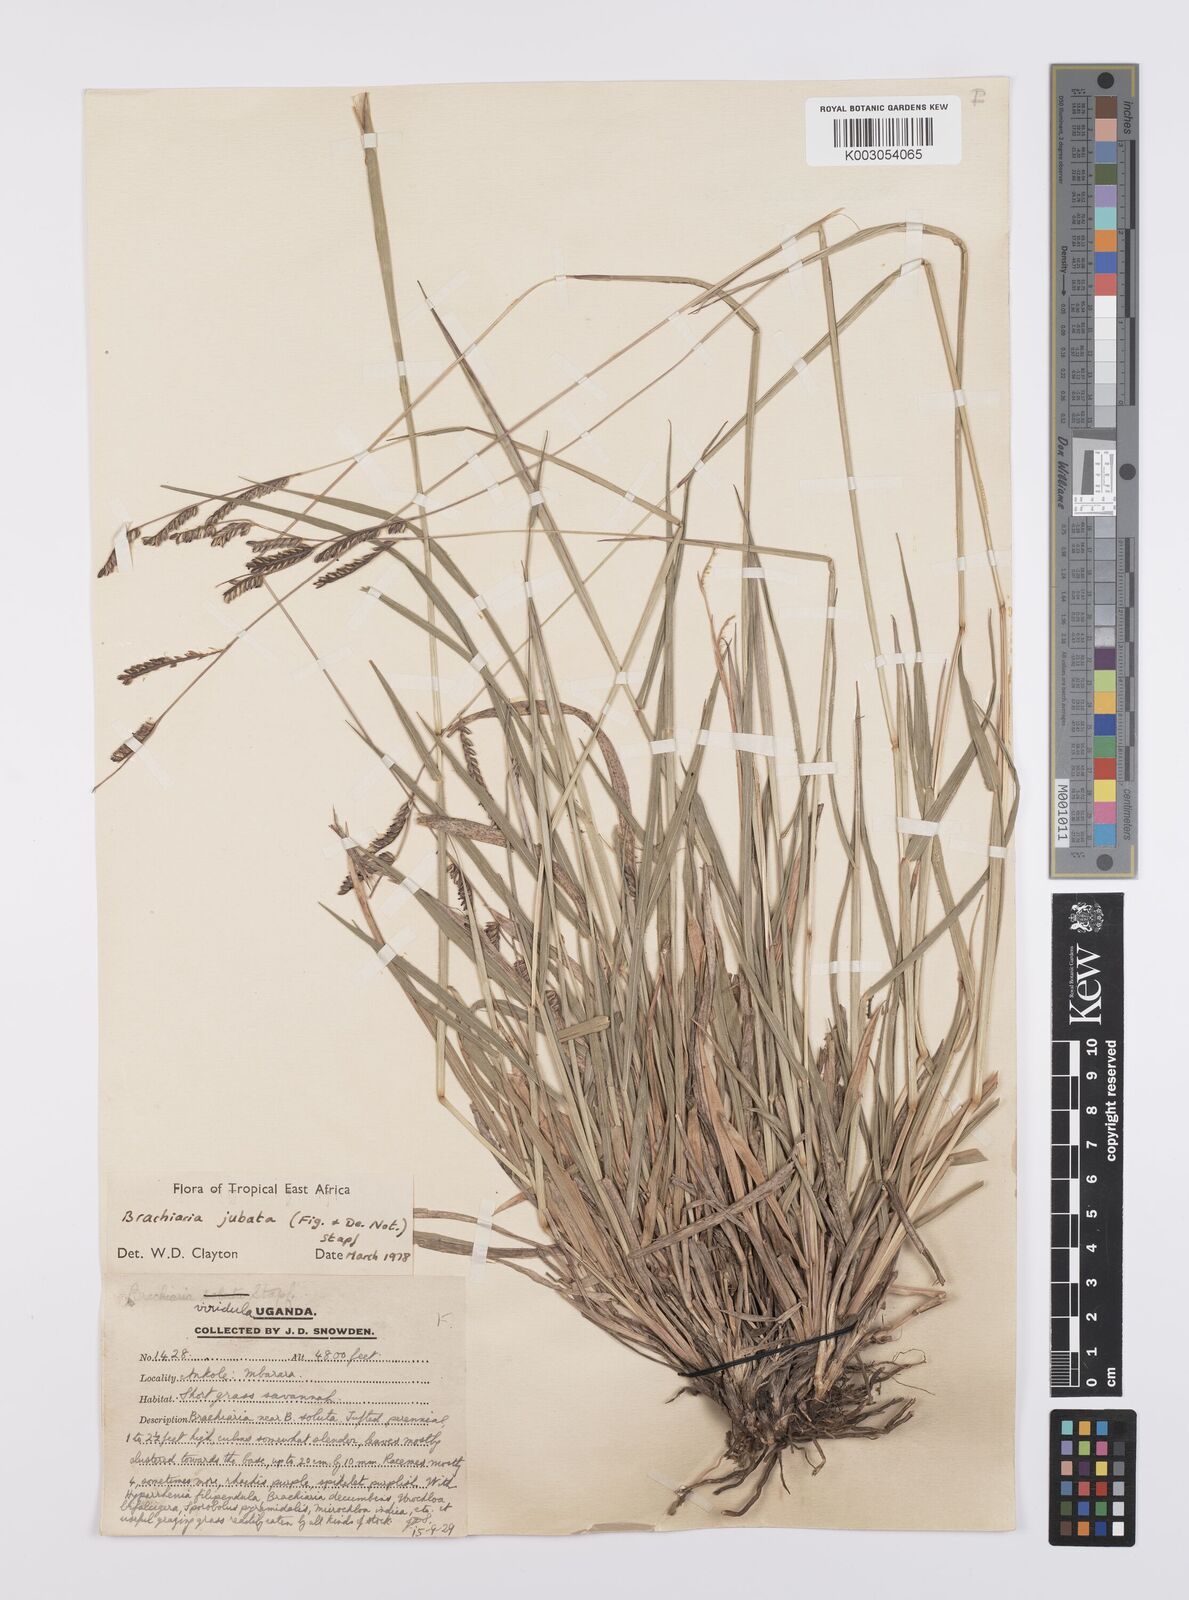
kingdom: Plantae
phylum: Tracheophyta
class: Liliopsida
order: Poales
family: Poaceae
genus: Urochloa
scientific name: Urochloa jubata
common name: Buffalograss
